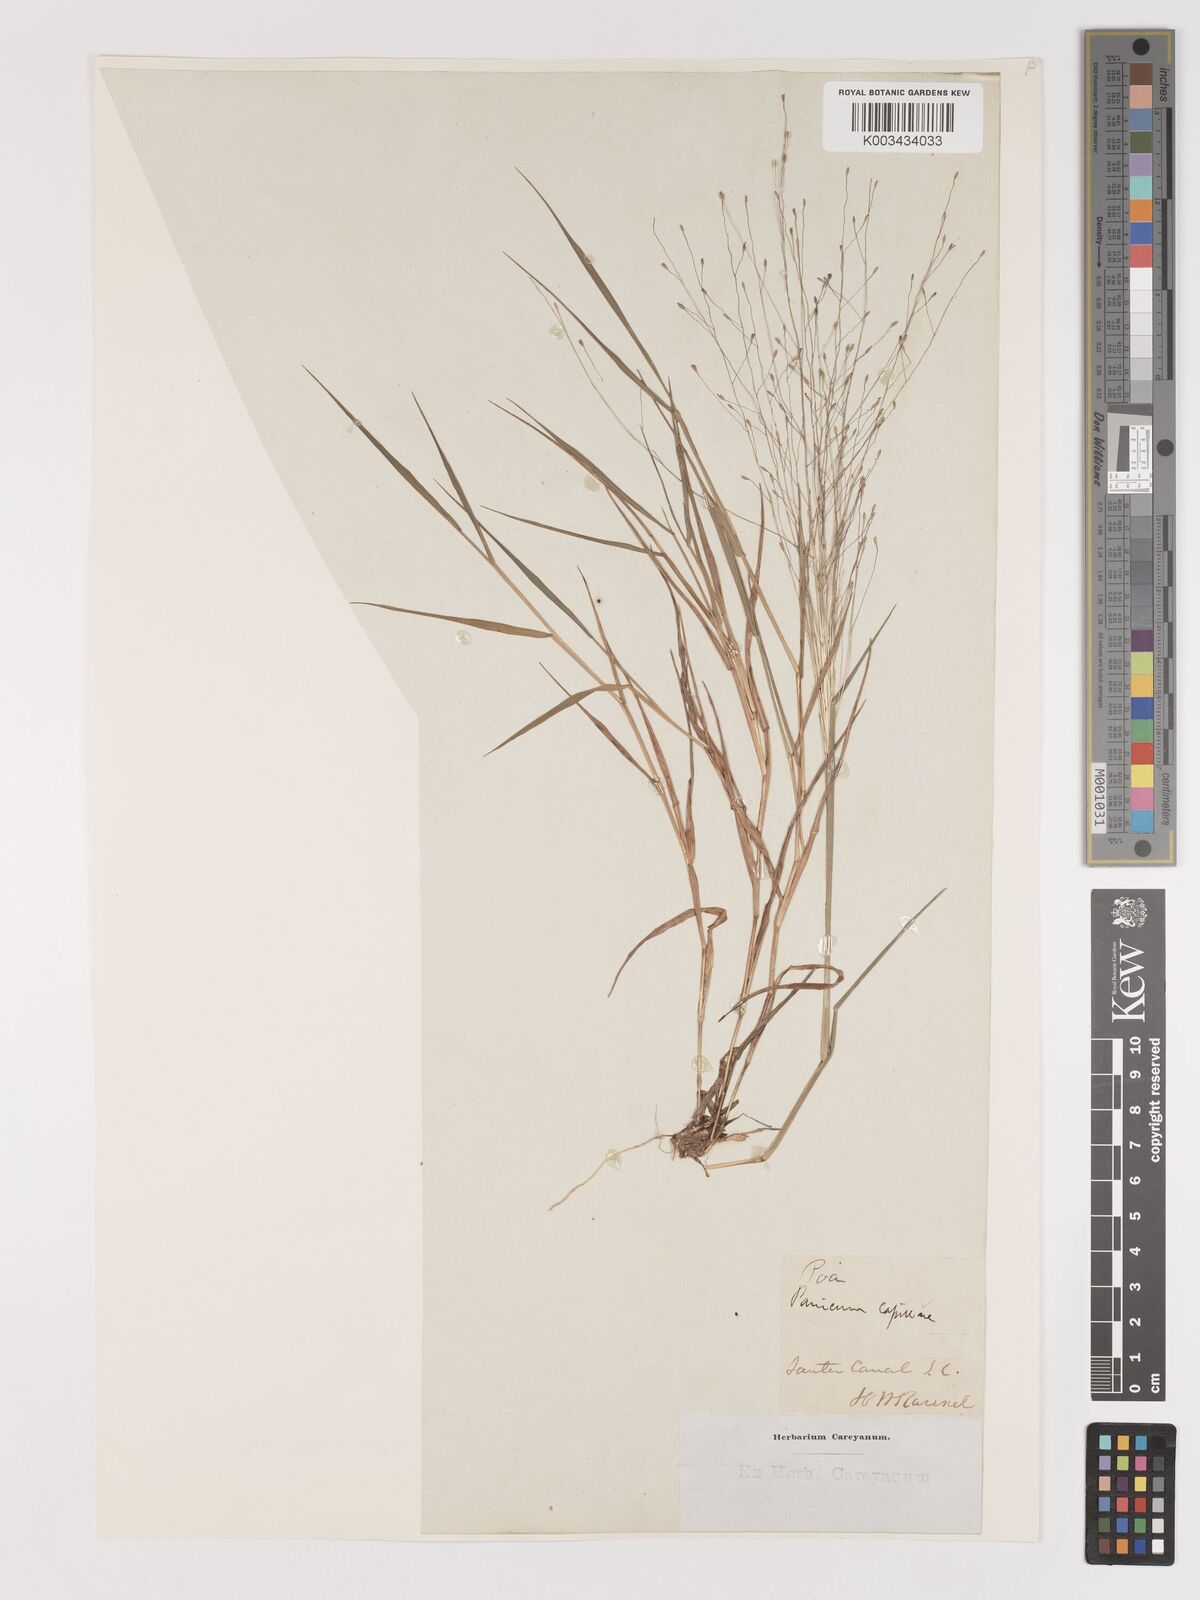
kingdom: Plantae
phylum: Tracheophyta
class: Liliopsida
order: Poales
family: Poaceae
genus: Digitaria
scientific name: Digitaria cognata
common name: Fall witchgrass
